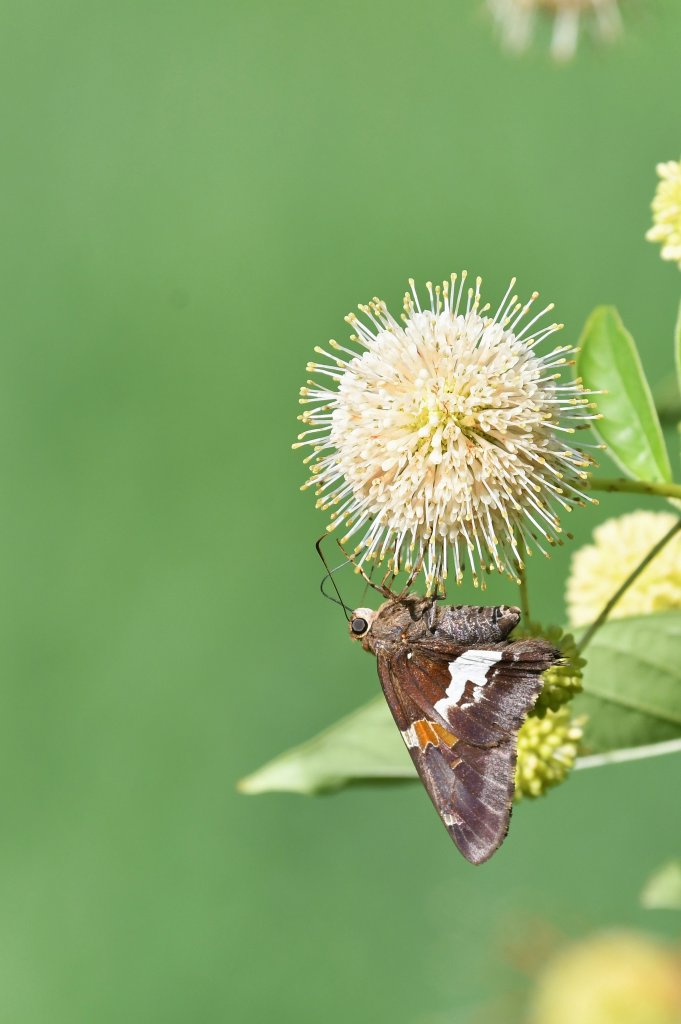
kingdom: Animalia
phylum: Arthropoda
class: Insecta
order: Lepidoptera
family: Hesperiidae
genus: Epargyreus
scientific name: Epargyreus clarus
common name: Silver-spotted Skipper
